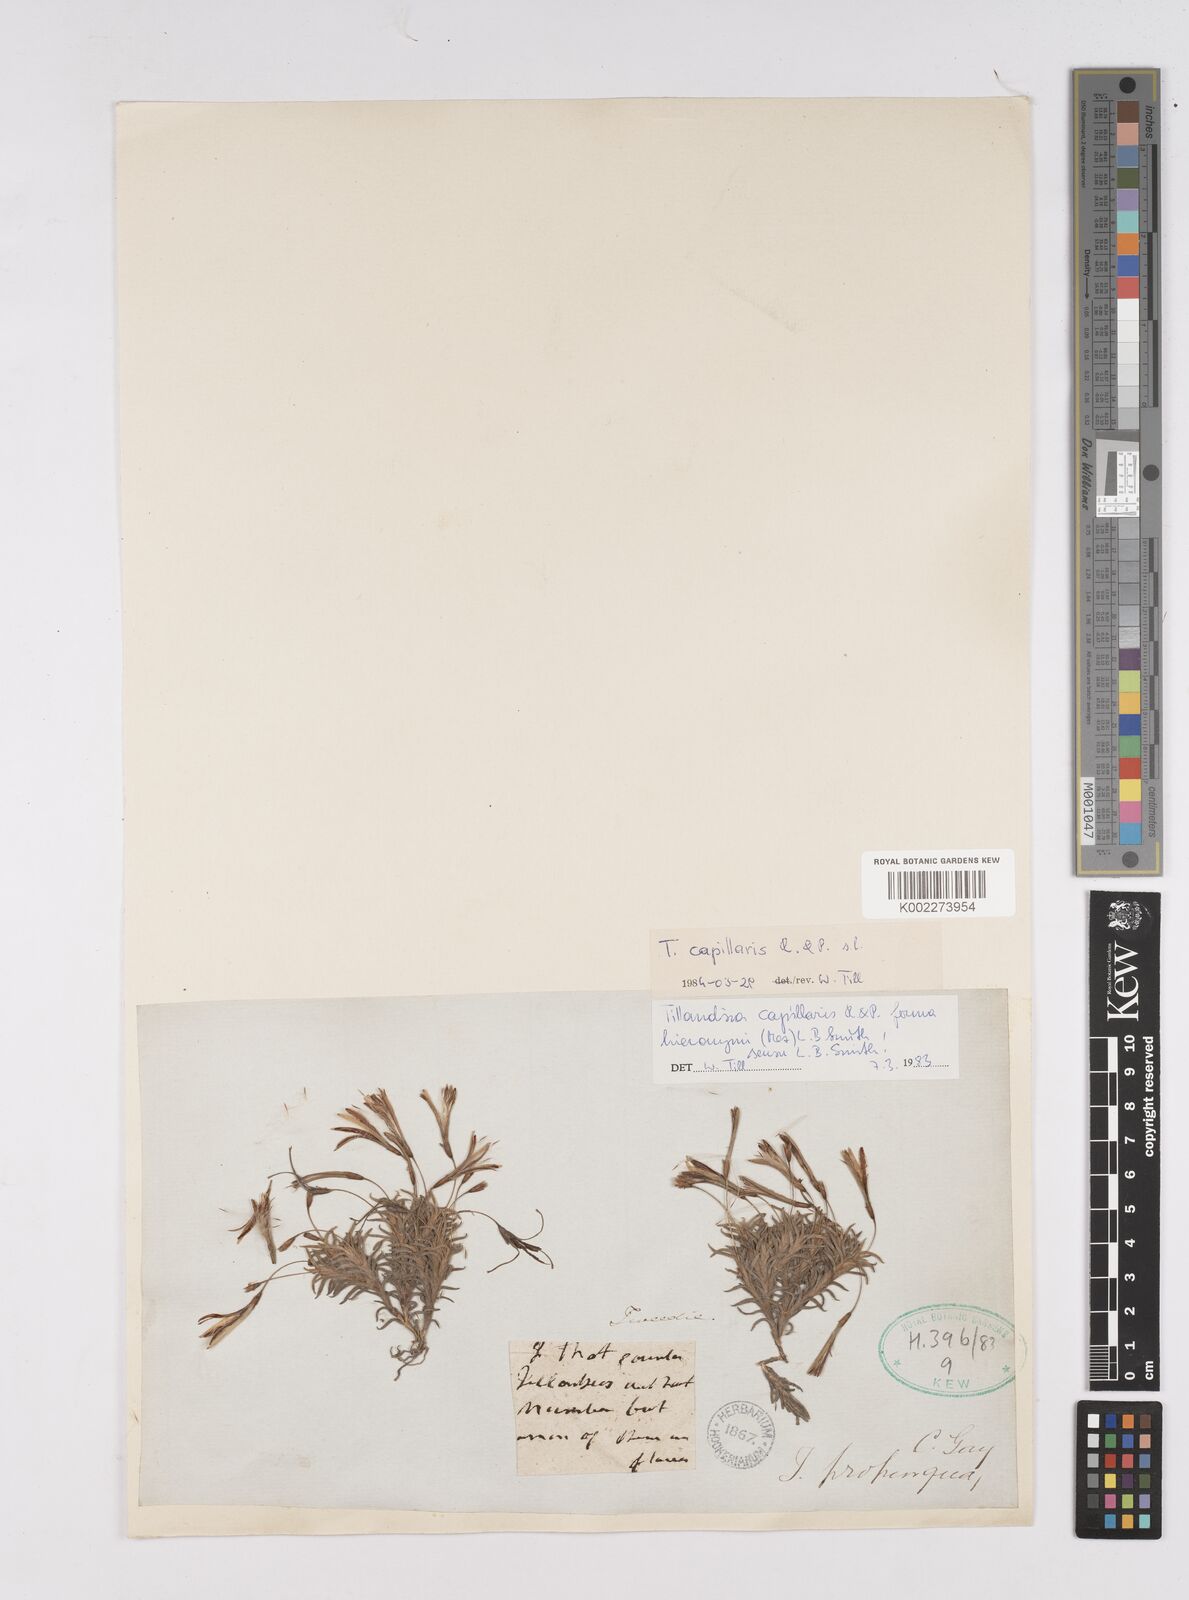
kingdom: Plantae
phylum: Tracheophyta
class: Liliopsida
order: Poales
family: Bromeliaceae
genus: Tillandsia
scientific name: Tillandsia capillaris
